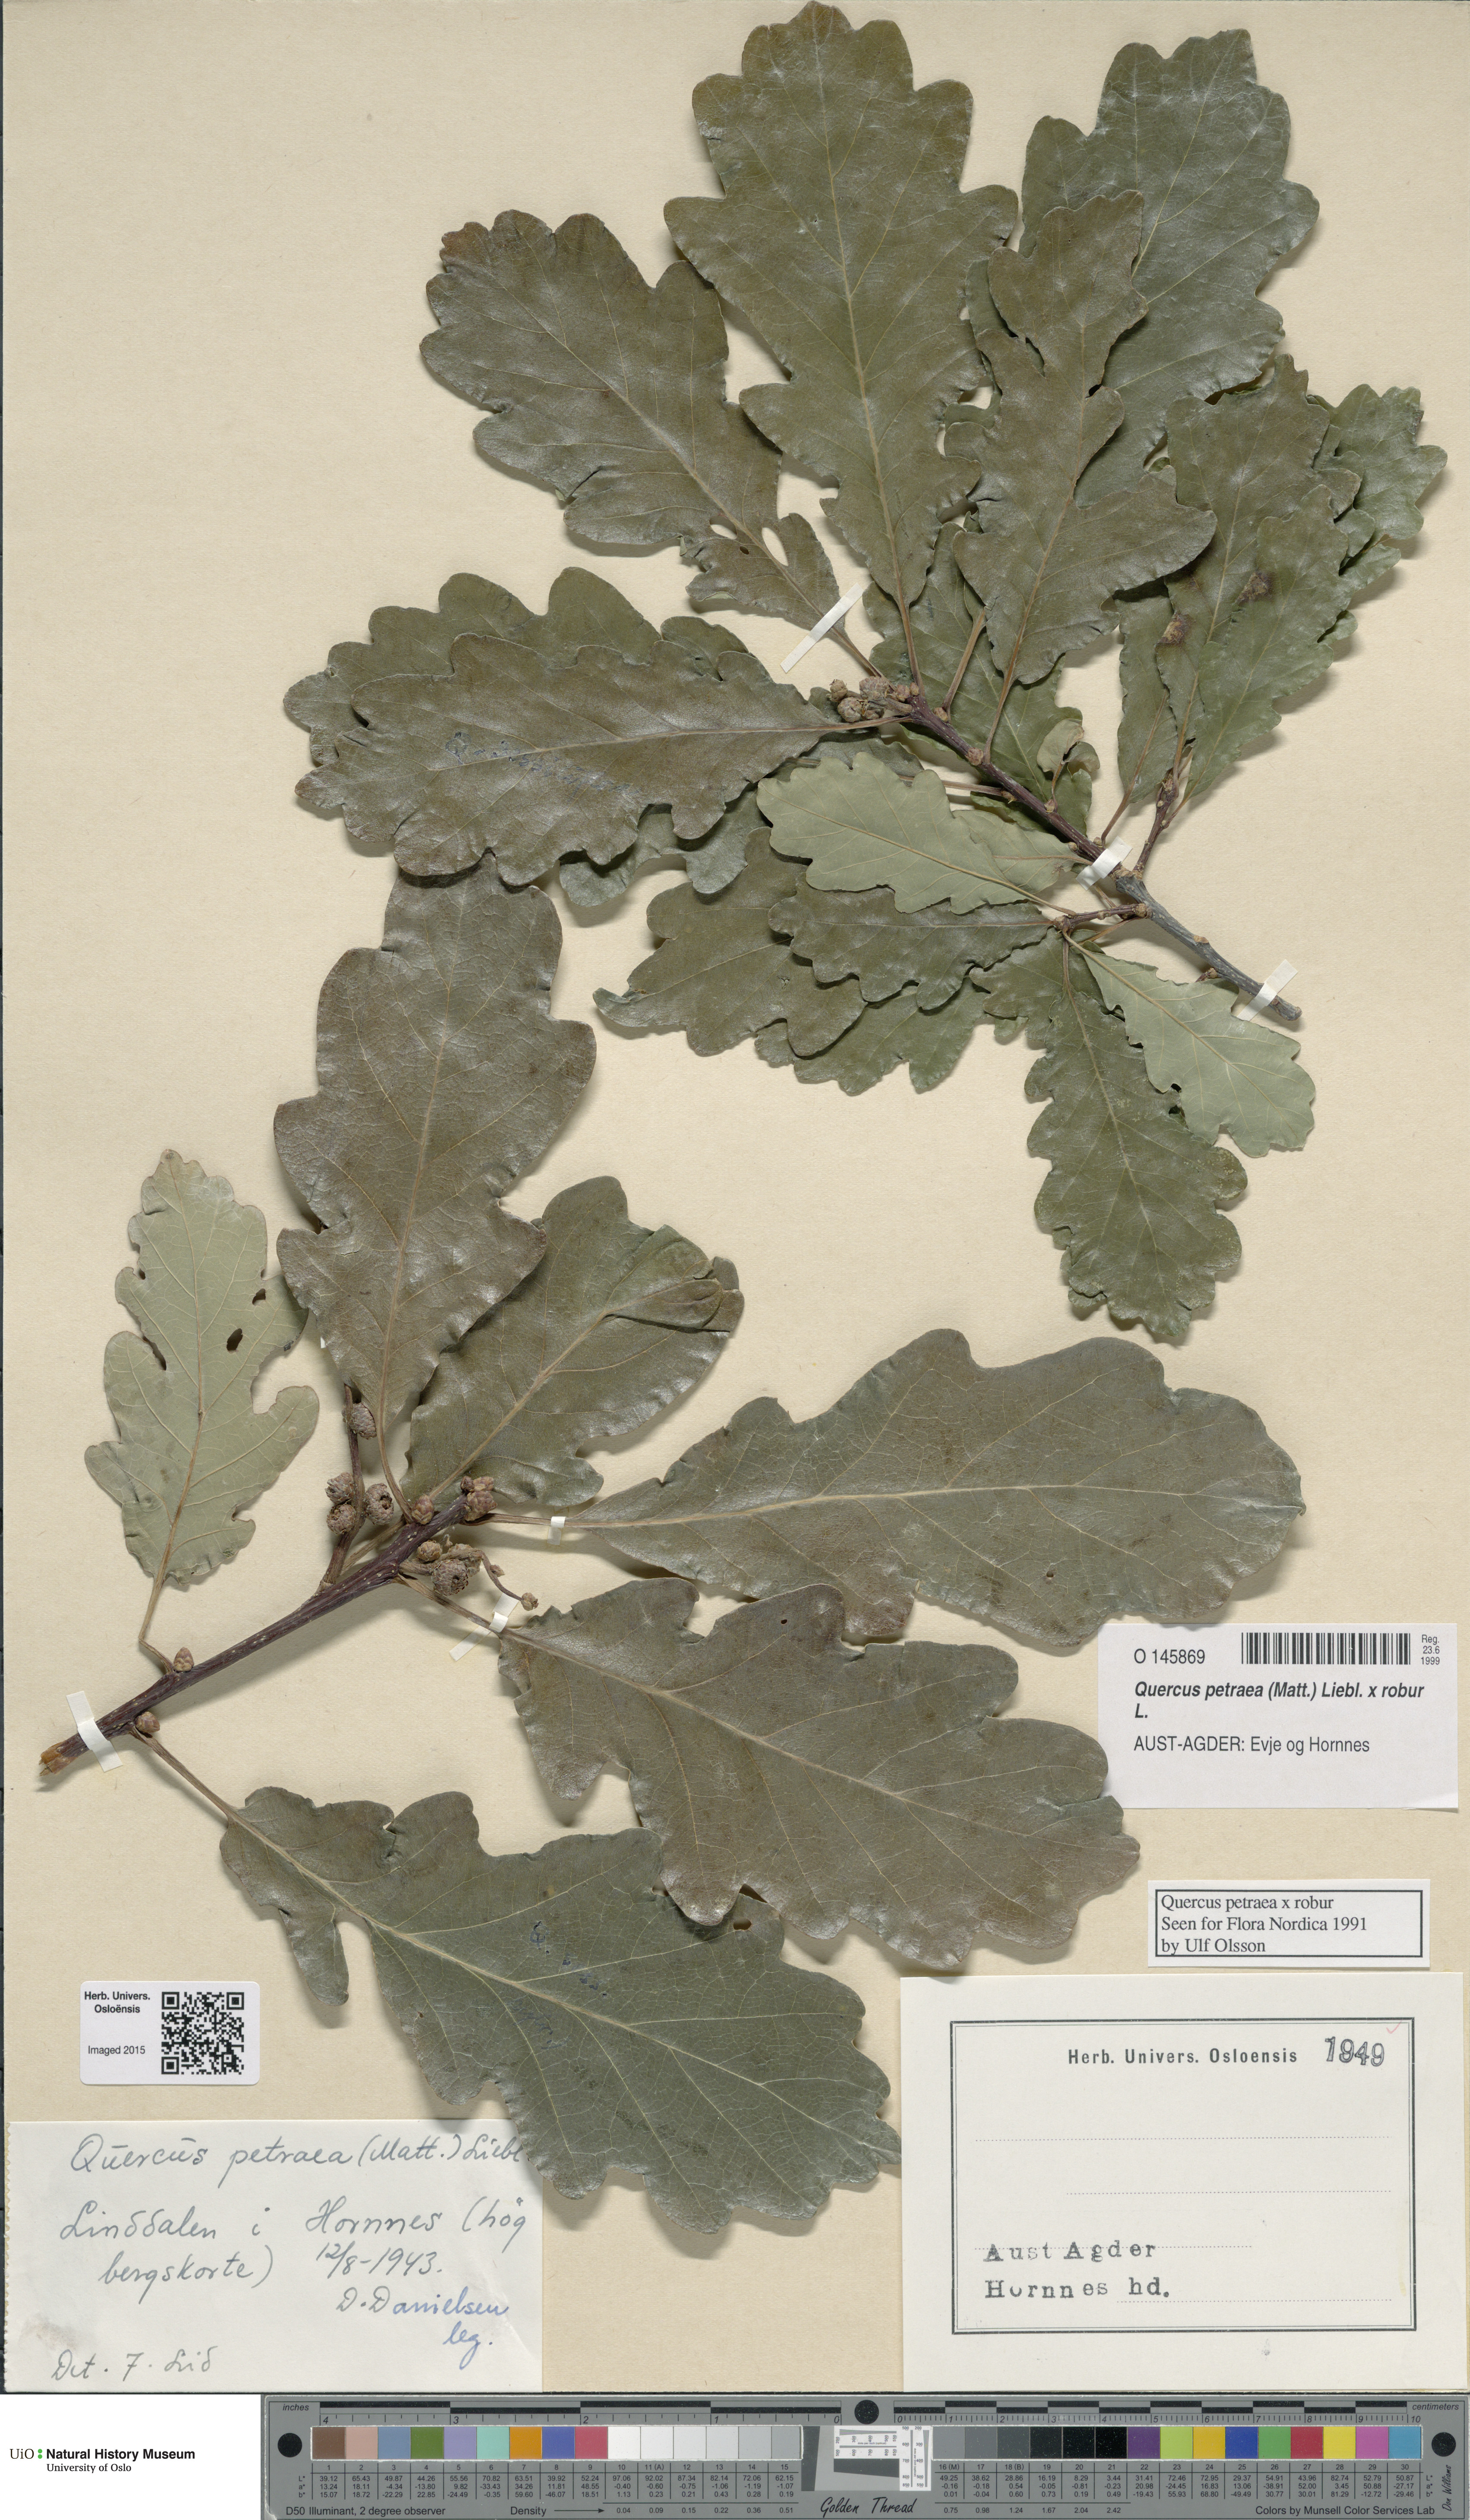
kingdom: Plantae
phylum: Tracheophyta
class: Magnoliopsida
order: Fagales
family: Fagaceae
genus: Quercus
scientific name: Quercus
